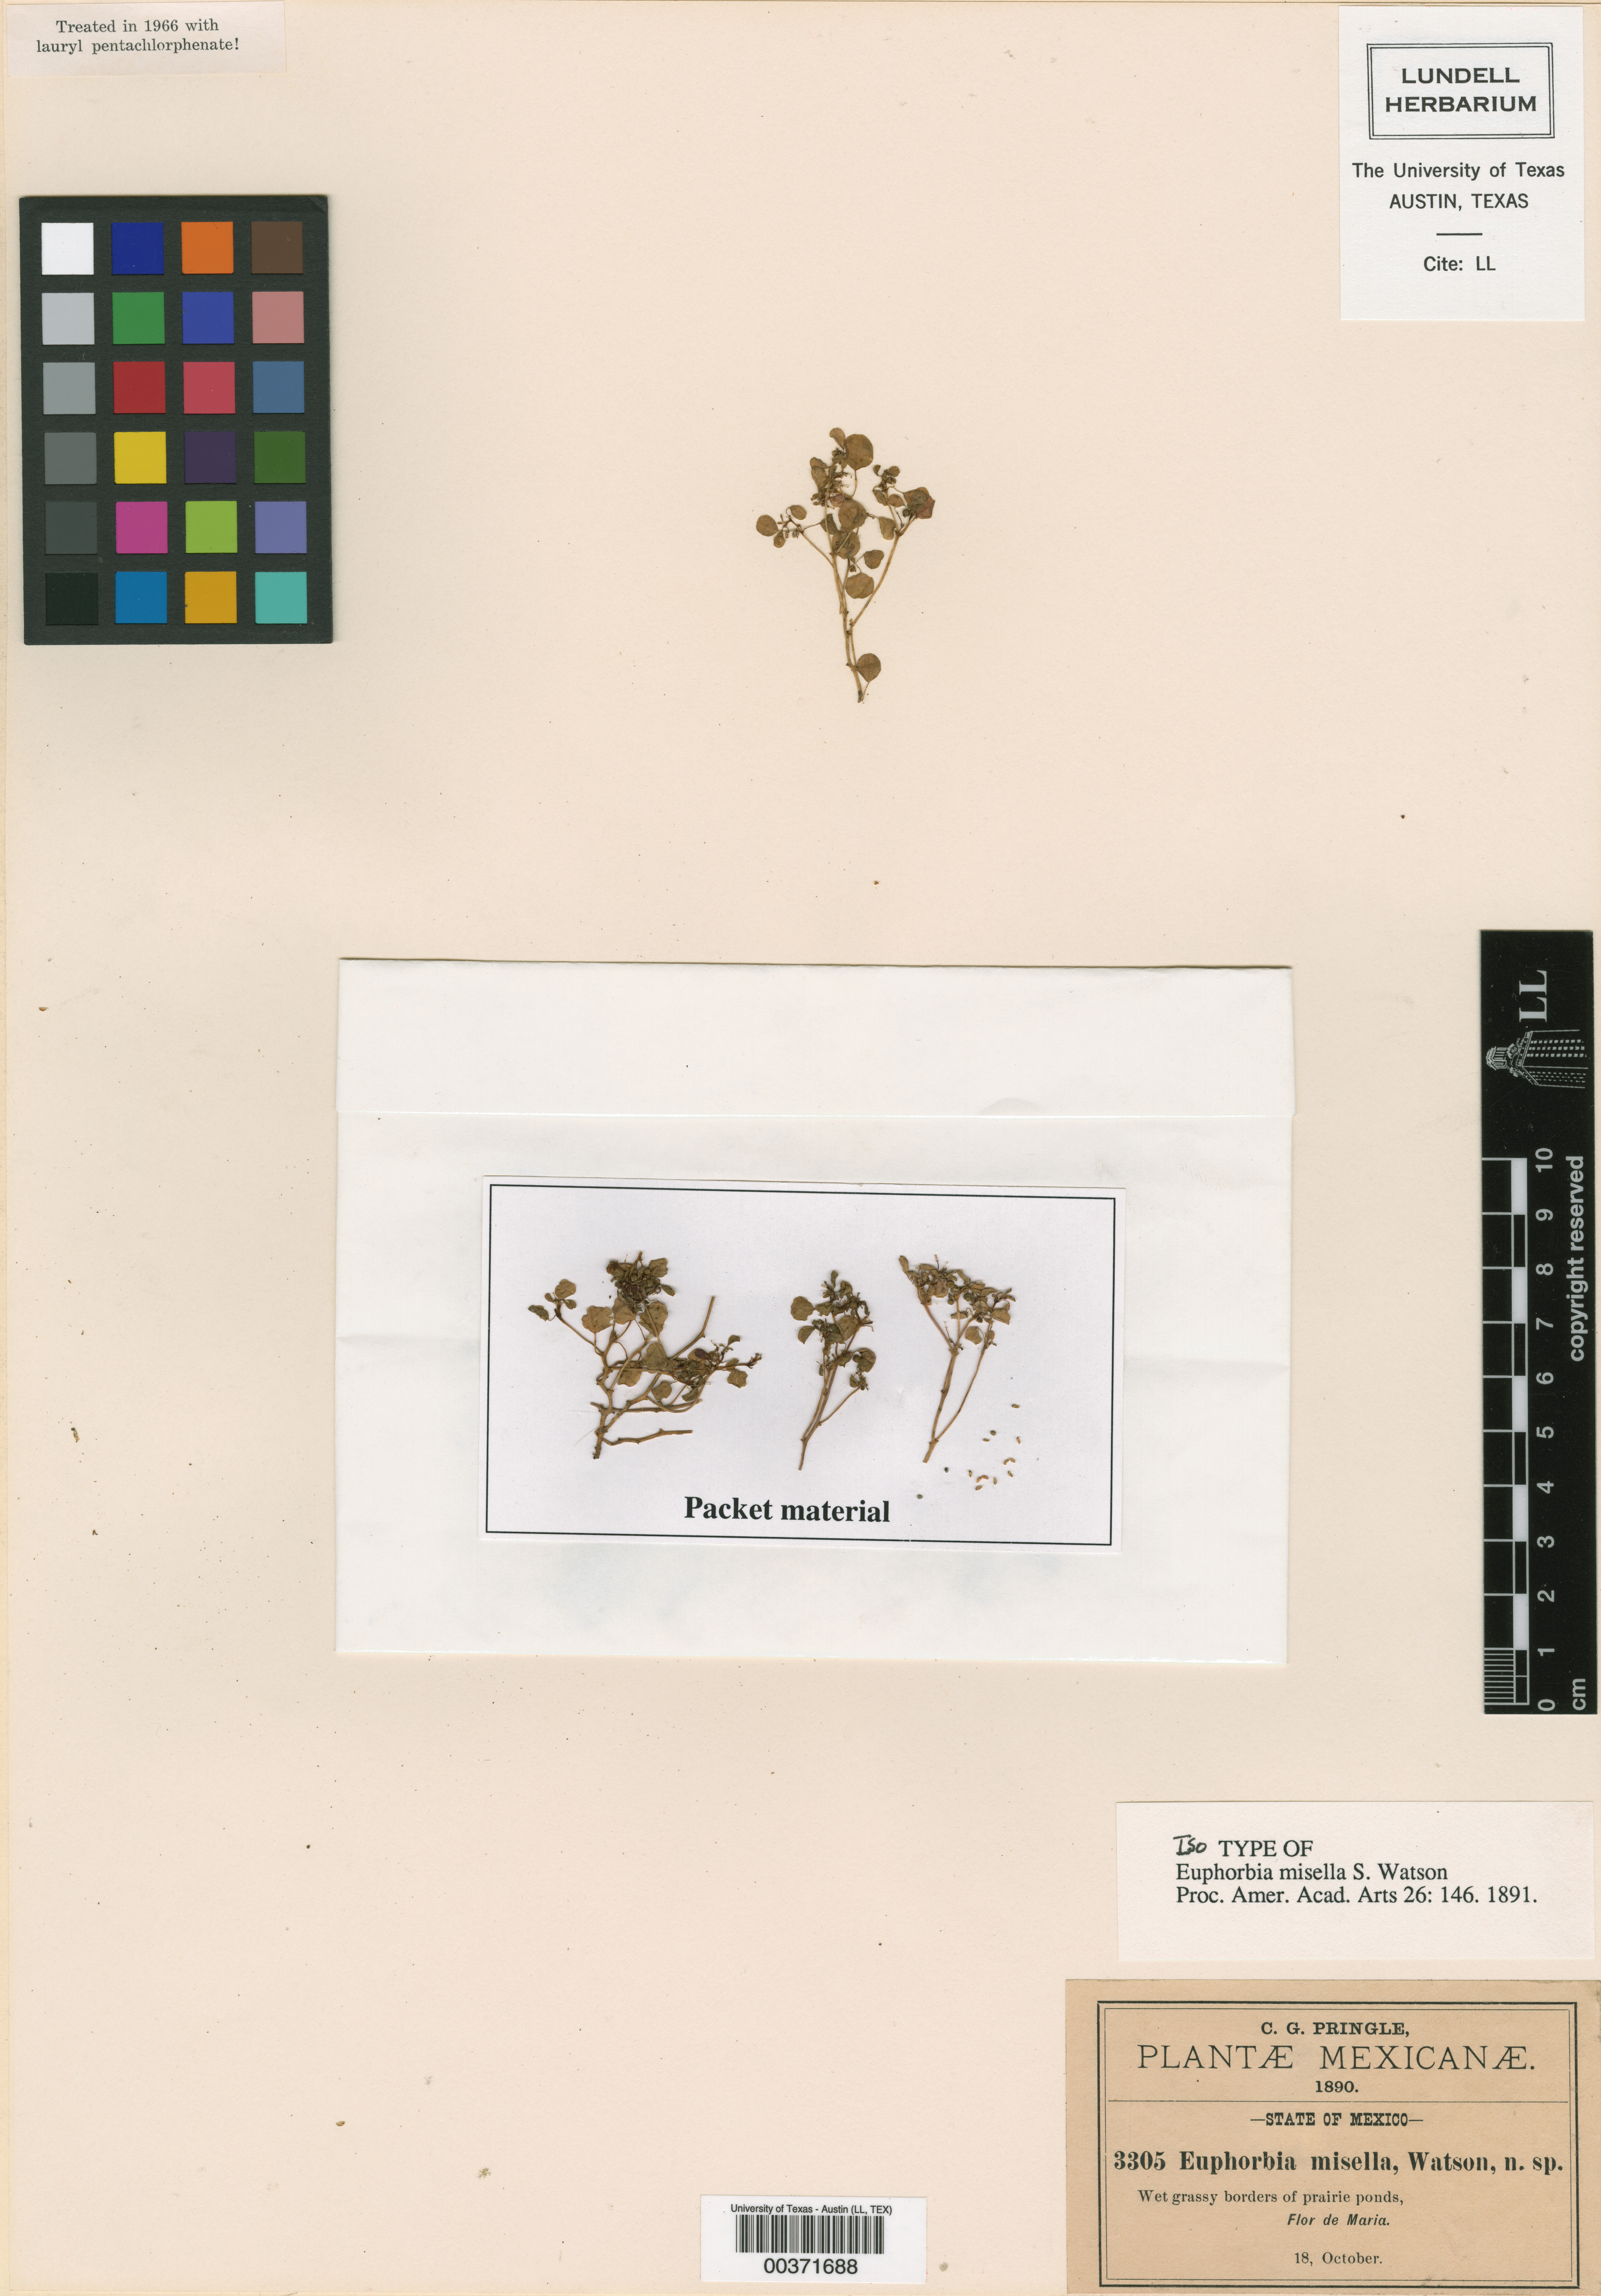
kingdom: Plantae
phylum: Tracheophyta
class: Magnoliopsida
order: Malpighiales
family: Euphorbiaceae
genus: Euphorbia
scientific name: Euphorbia misella
